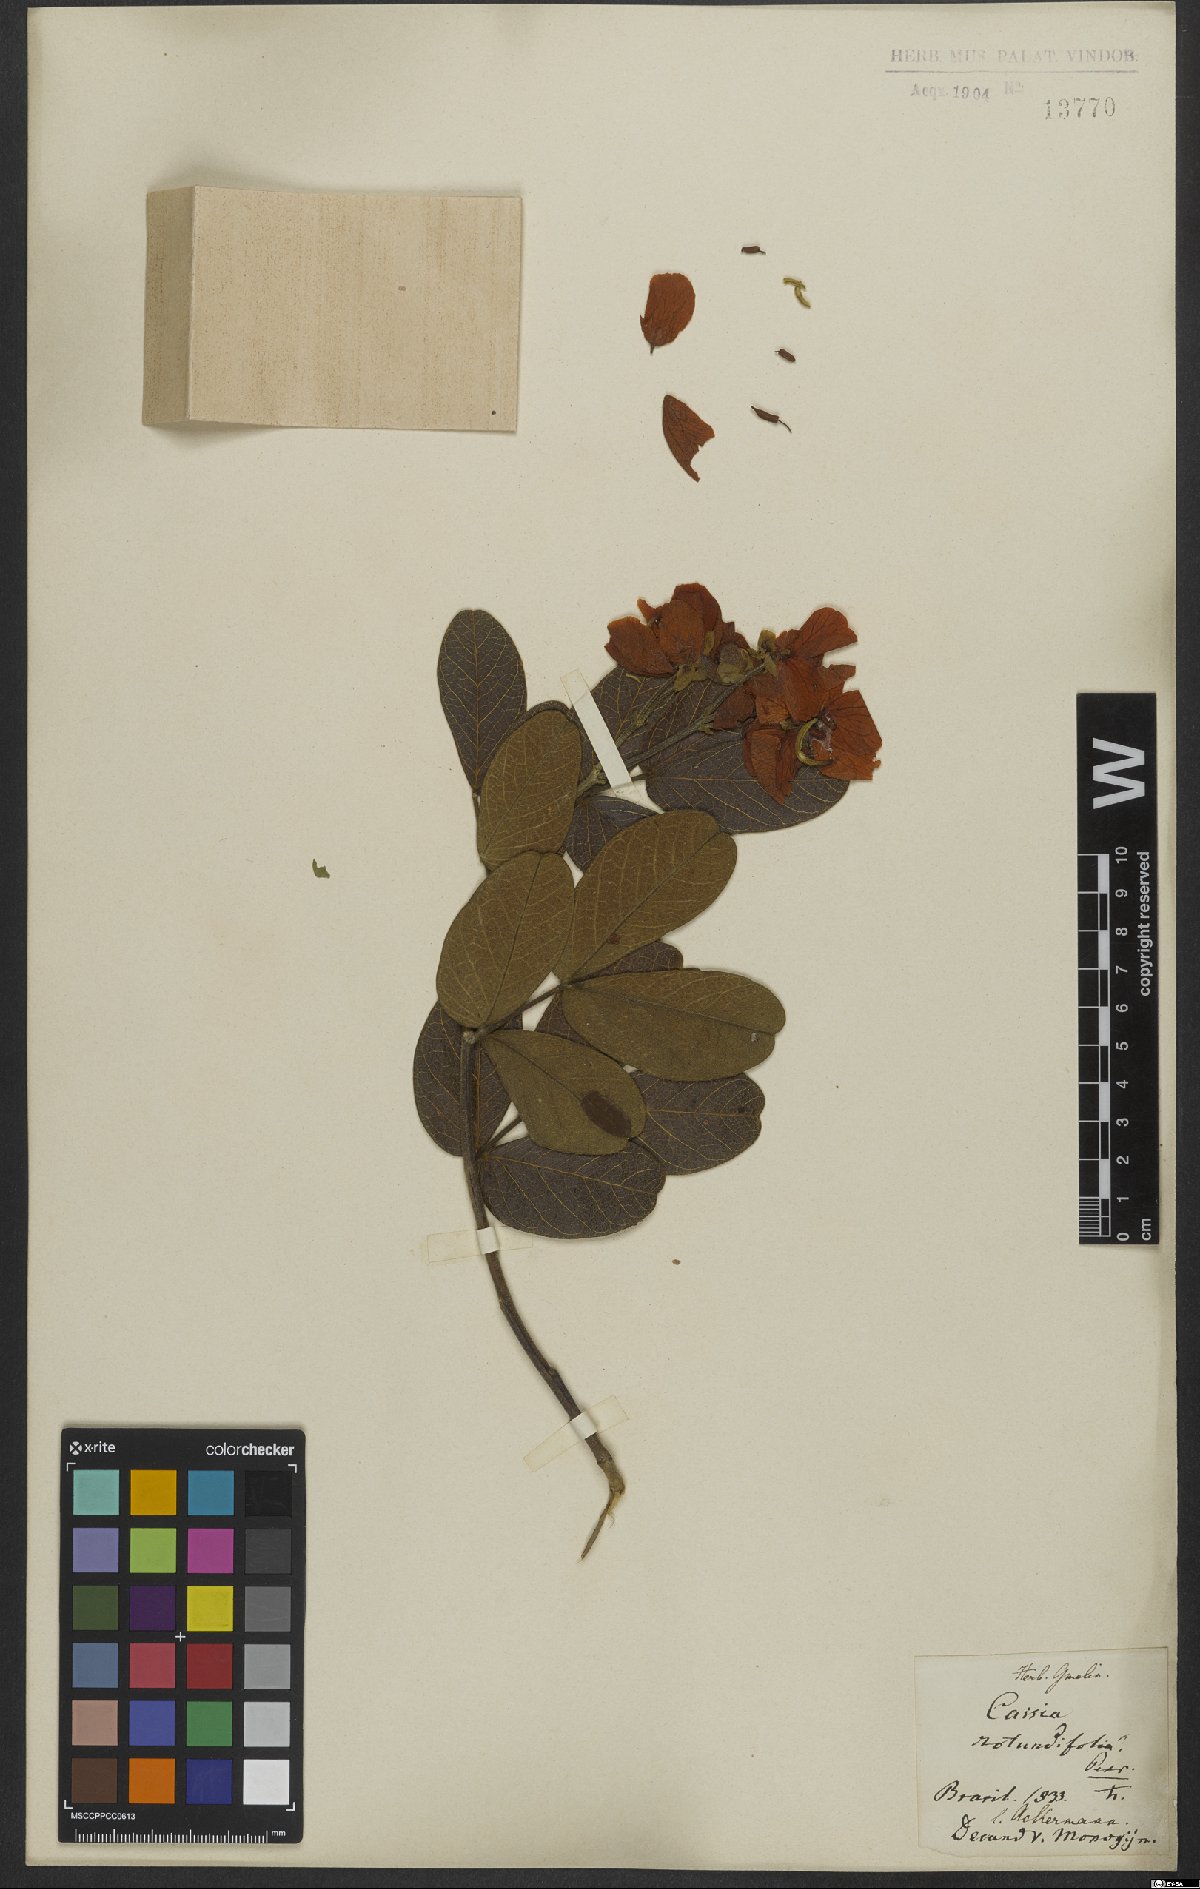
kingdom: Plantae
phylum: Tracheophyta
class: Magnoliopsida
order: Fabales
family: Fabaceae
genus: Chamaecrista
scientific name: Chamaecrista rotundifolia
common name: Round-leaf cassia
